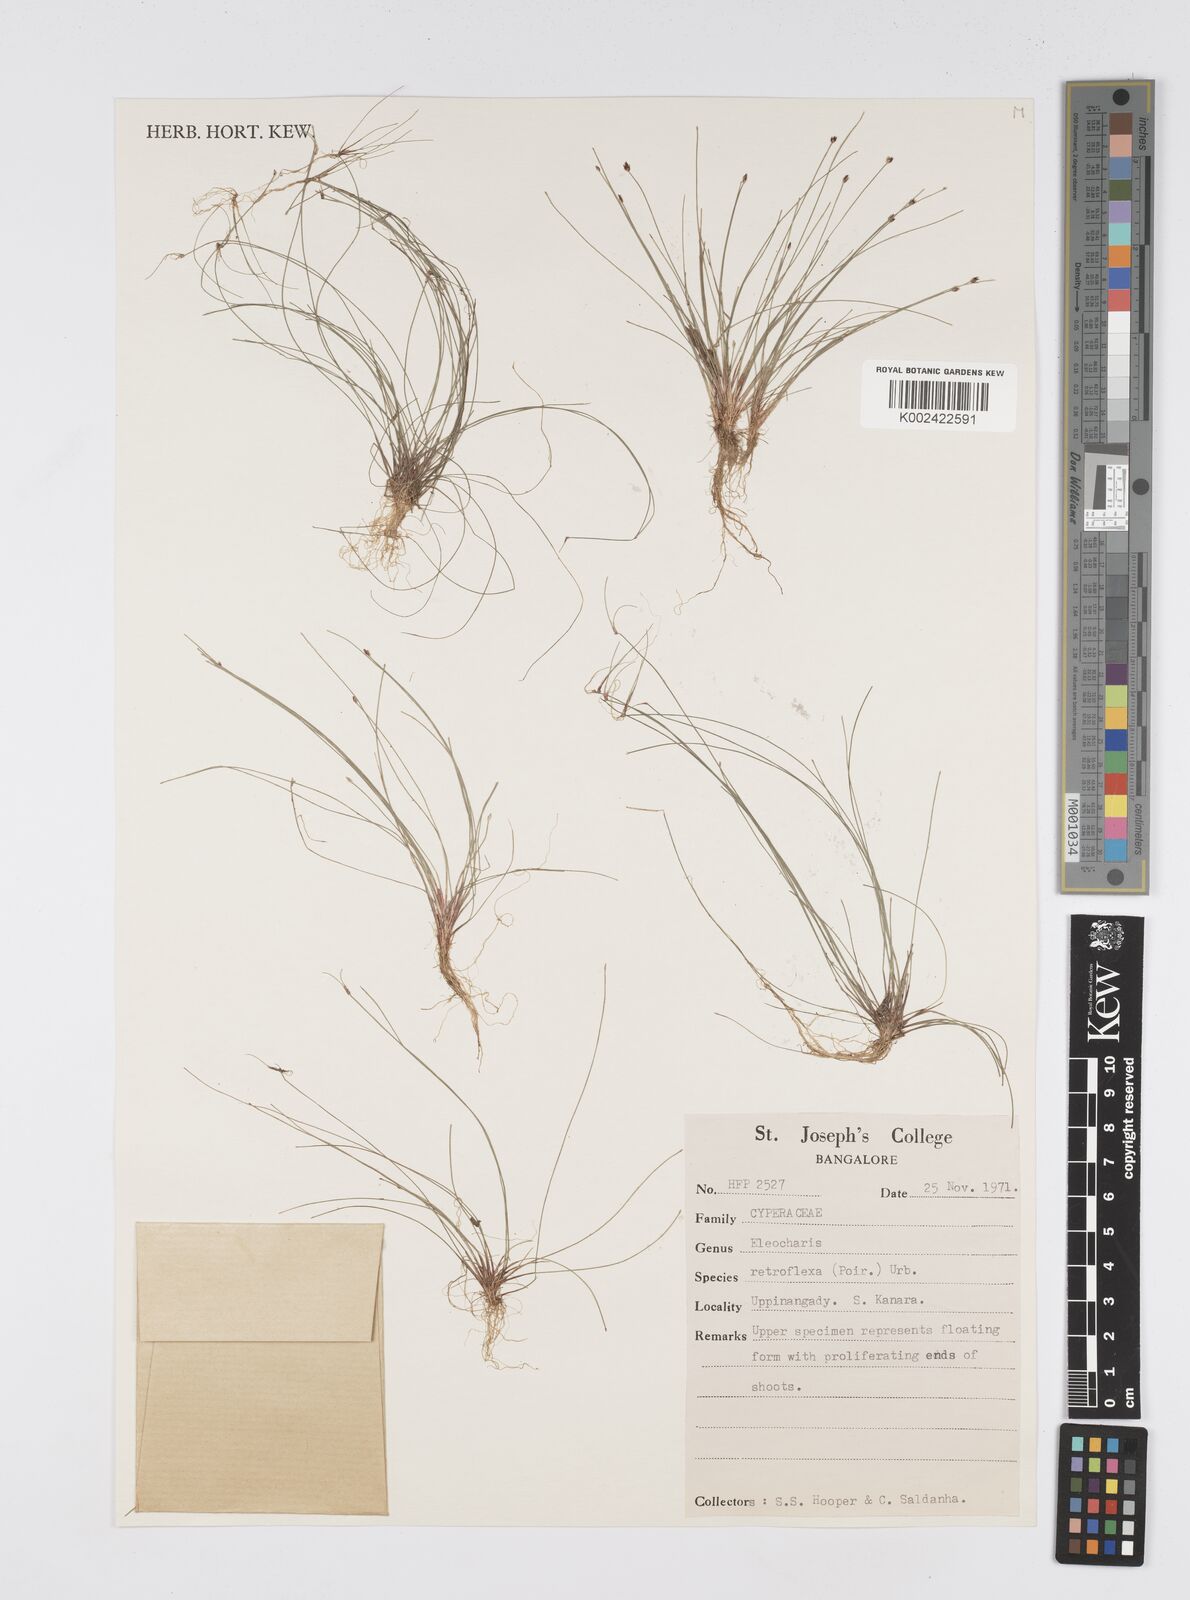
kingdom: Plantae
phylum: Tracheophyta
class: Liliopsida
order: Poales
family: Cyperaceae
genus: Eleocharis
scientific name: Eleocharis retroflexa
